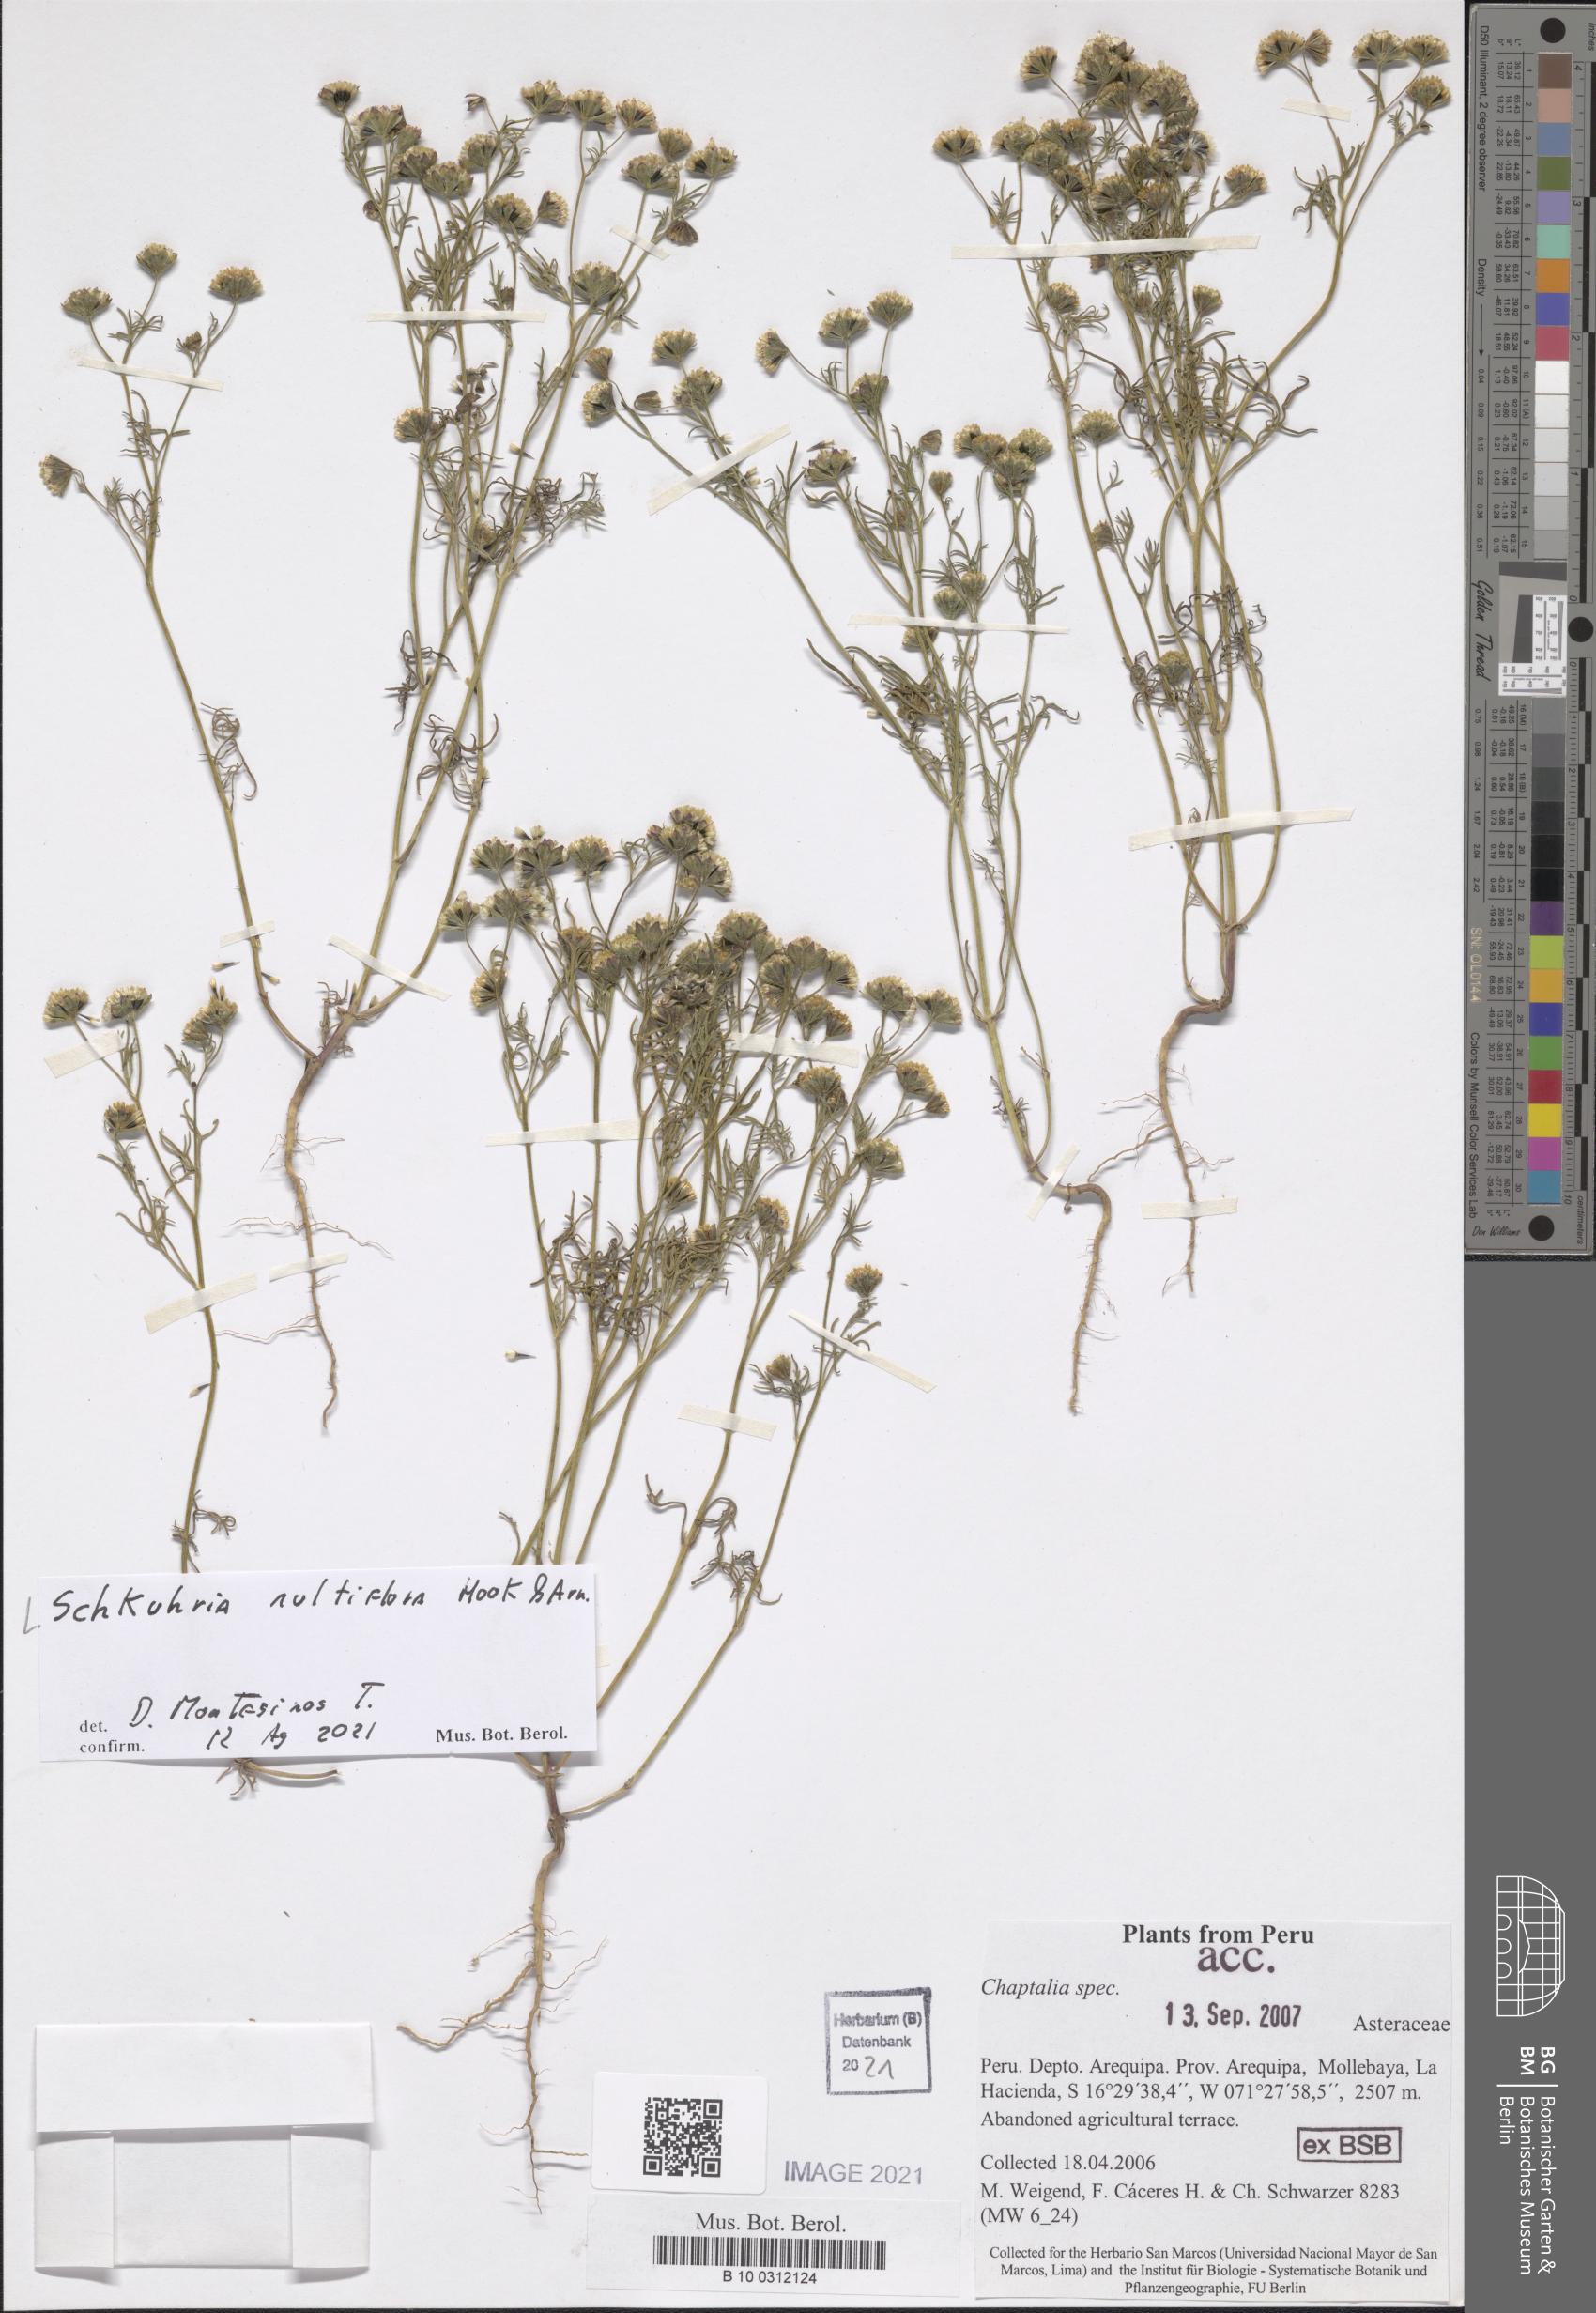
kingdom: Plantae
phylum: Tracheophyta
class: Magnoliopsida
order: Asterales
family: Asteraceae
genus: Picradeniopsis
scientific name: Picradeniopsis multiflora
